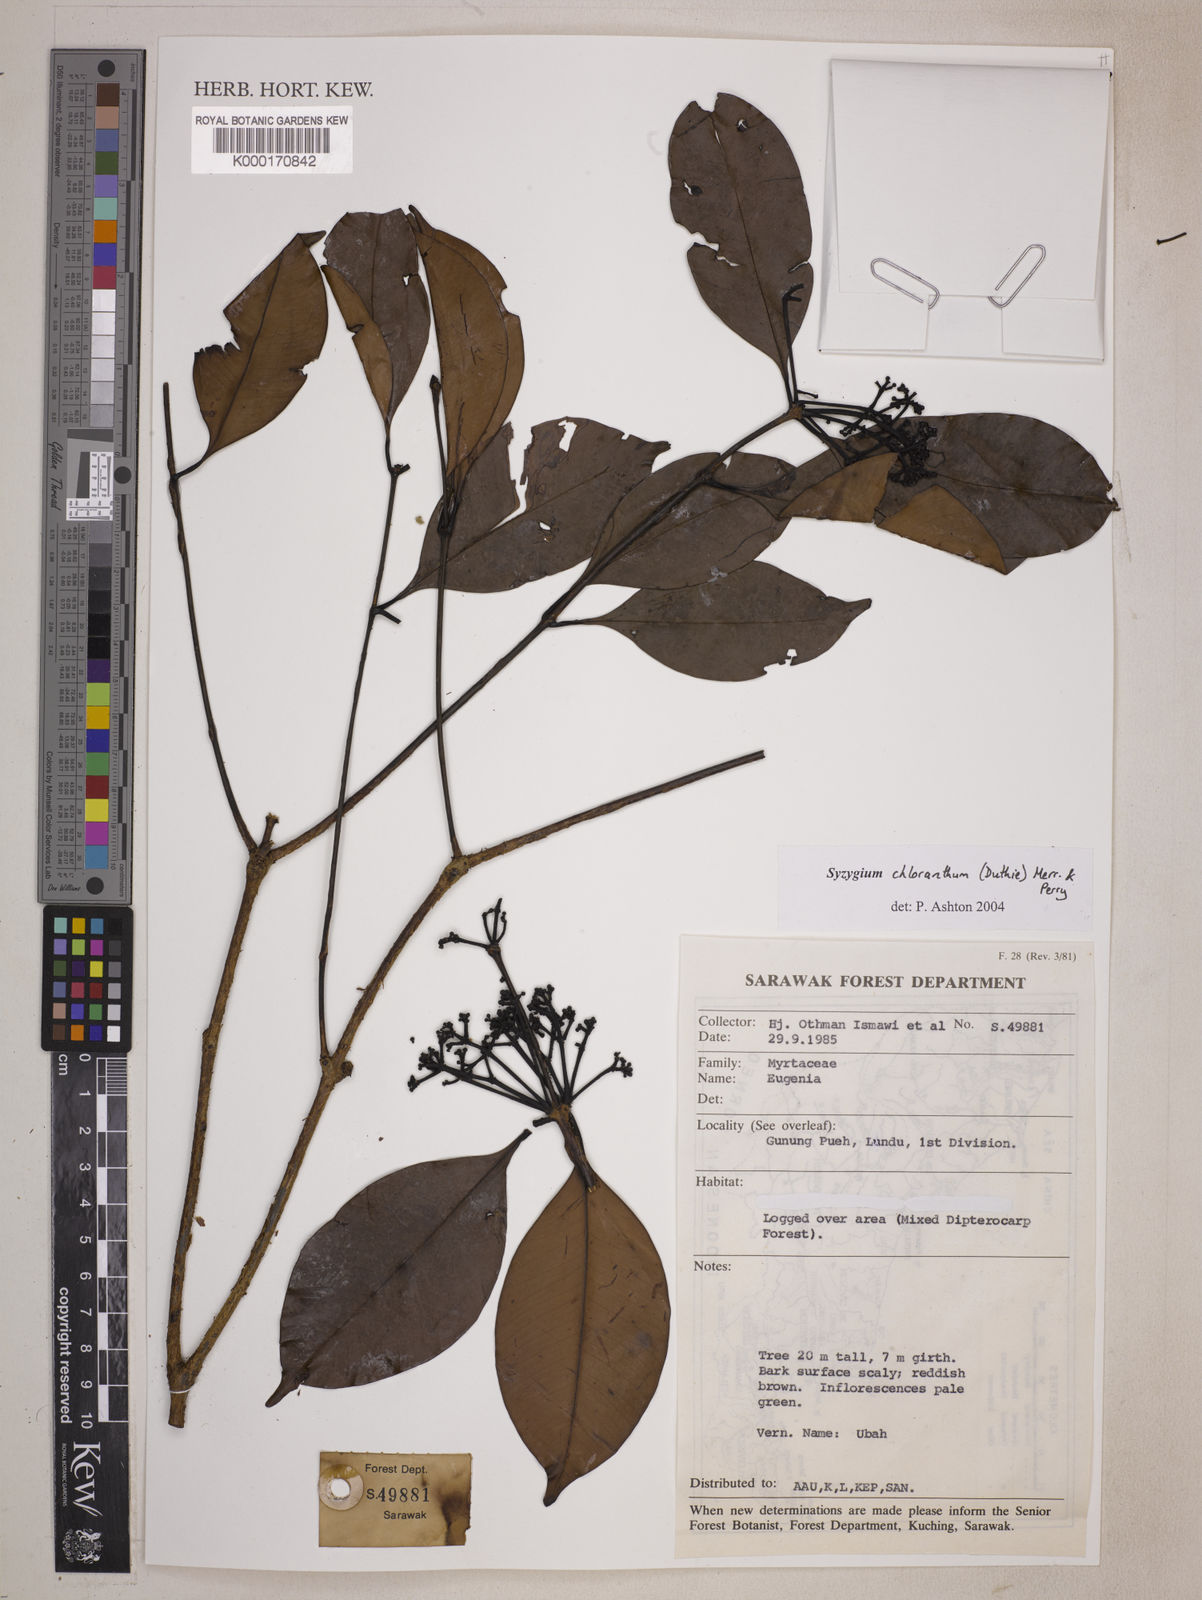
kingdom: Plantae
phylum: Tracheophyta
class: Magnoliopsida
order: Myrtales
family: Myrtaceae
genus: Syzygium
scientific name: Syzygium chloranthum
